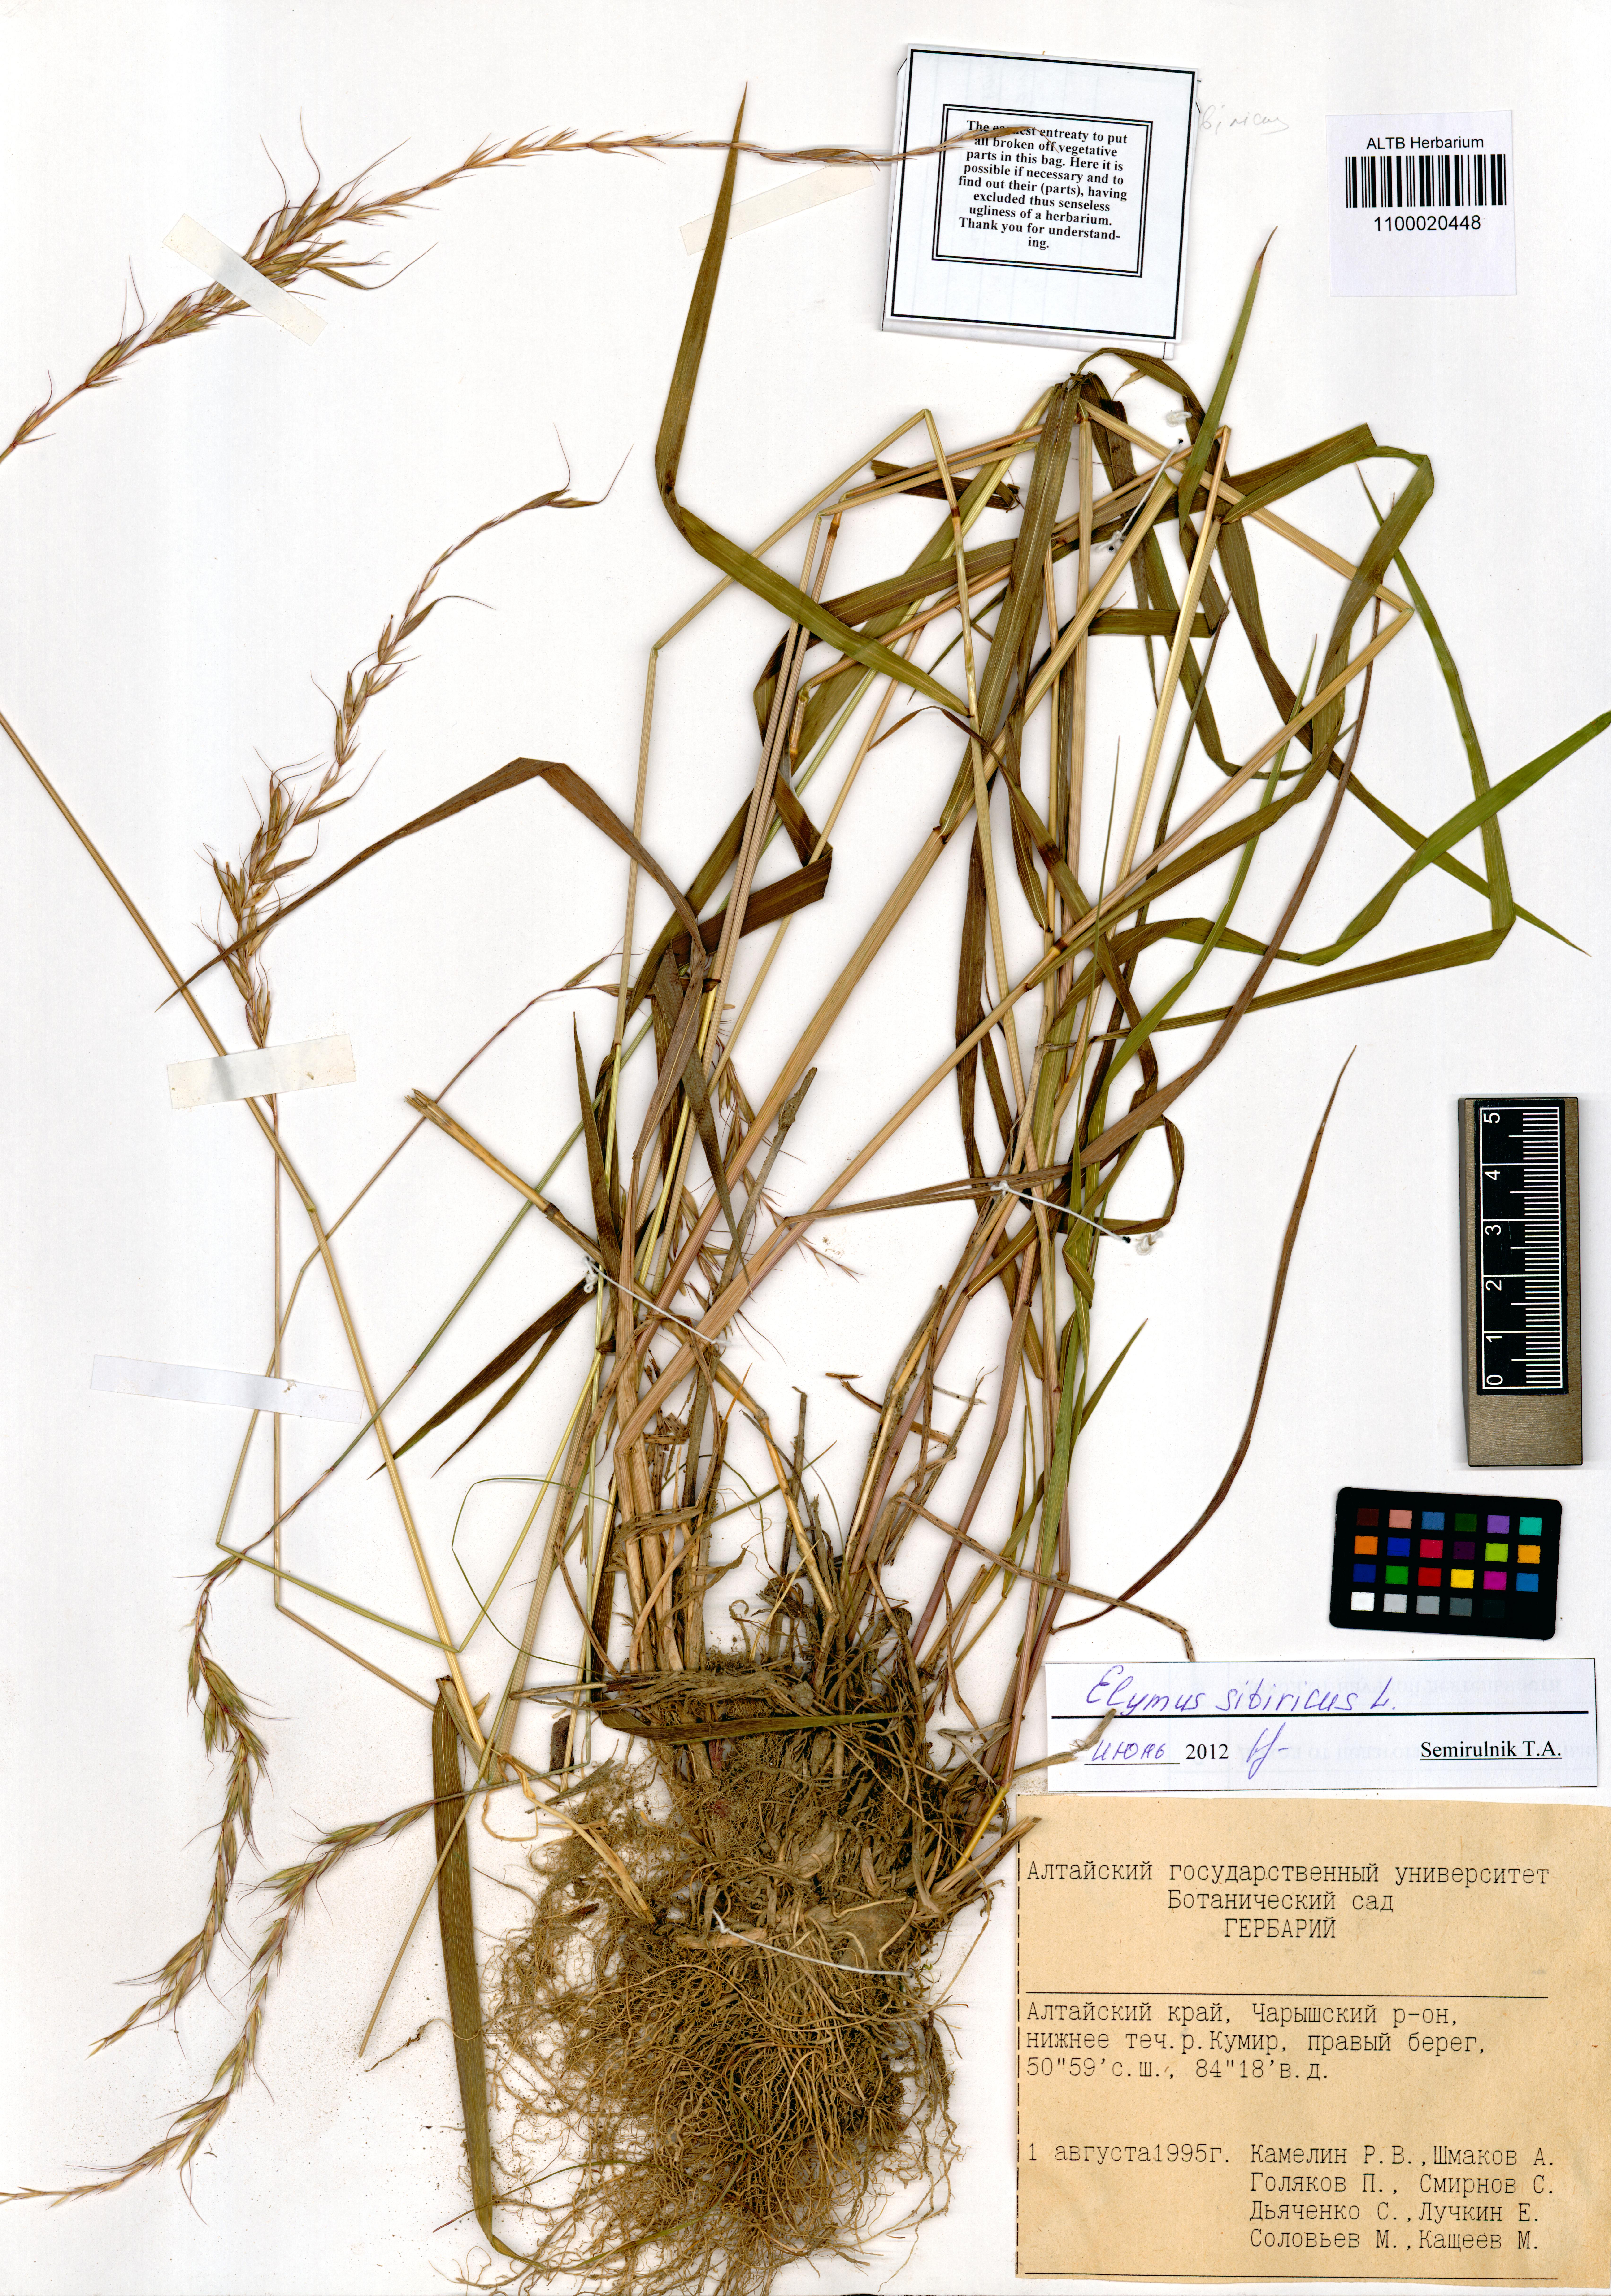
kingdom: Plantae
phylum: Tracheophyta
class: Liliopsida
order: Poales
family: Poaceae
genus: Elymus
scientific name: Elymus sibiricus
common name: Siberian wildrye
